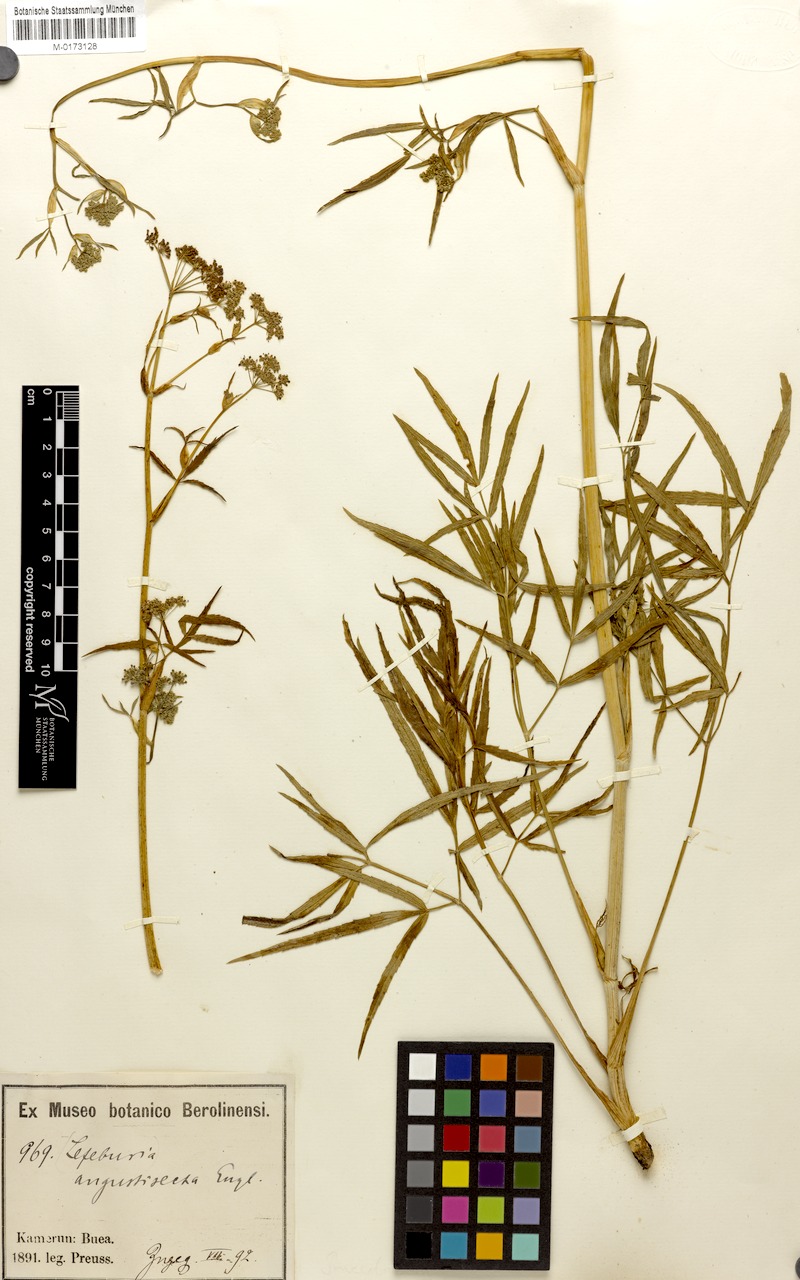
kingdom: Plantae
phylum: Tracheophyta
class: Magnoliopsida
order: Apiales
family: Apiaceae
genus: Lefebvrea
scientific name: Lefebvrea angustisecta
